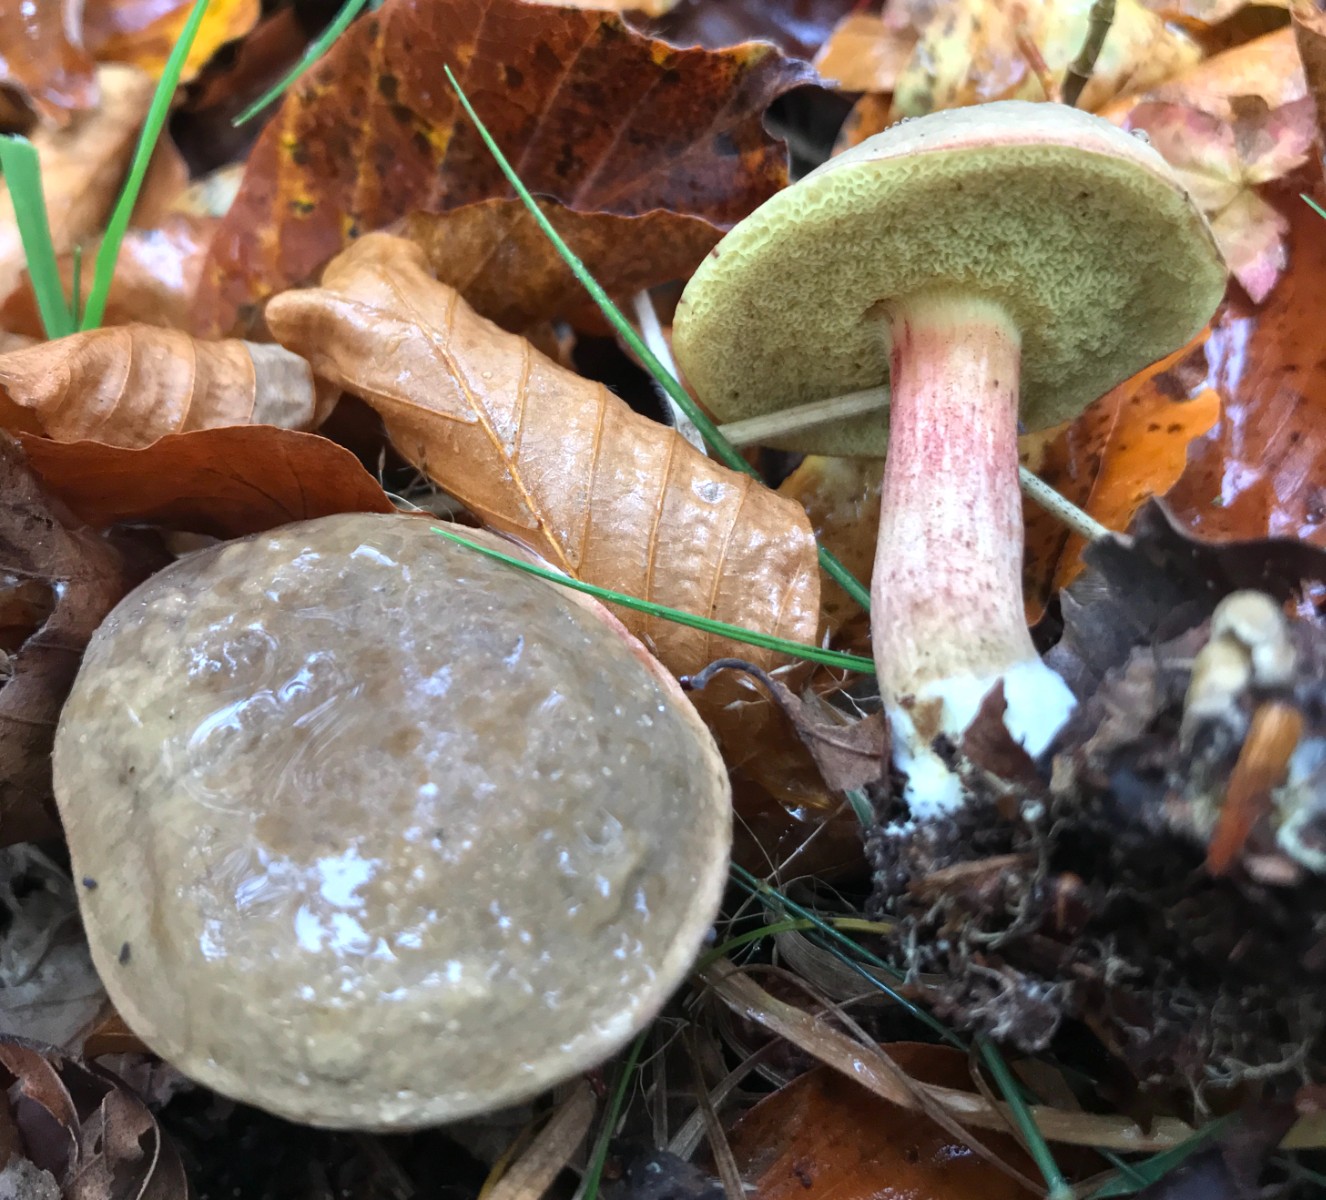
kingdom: Fungi
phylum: Basidiomycota
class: Agaricomycetes
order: Boletales
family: Boletaceae
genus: Xerocomellus
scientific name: Xerocomellus pruinatus
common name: dugget rørhat
